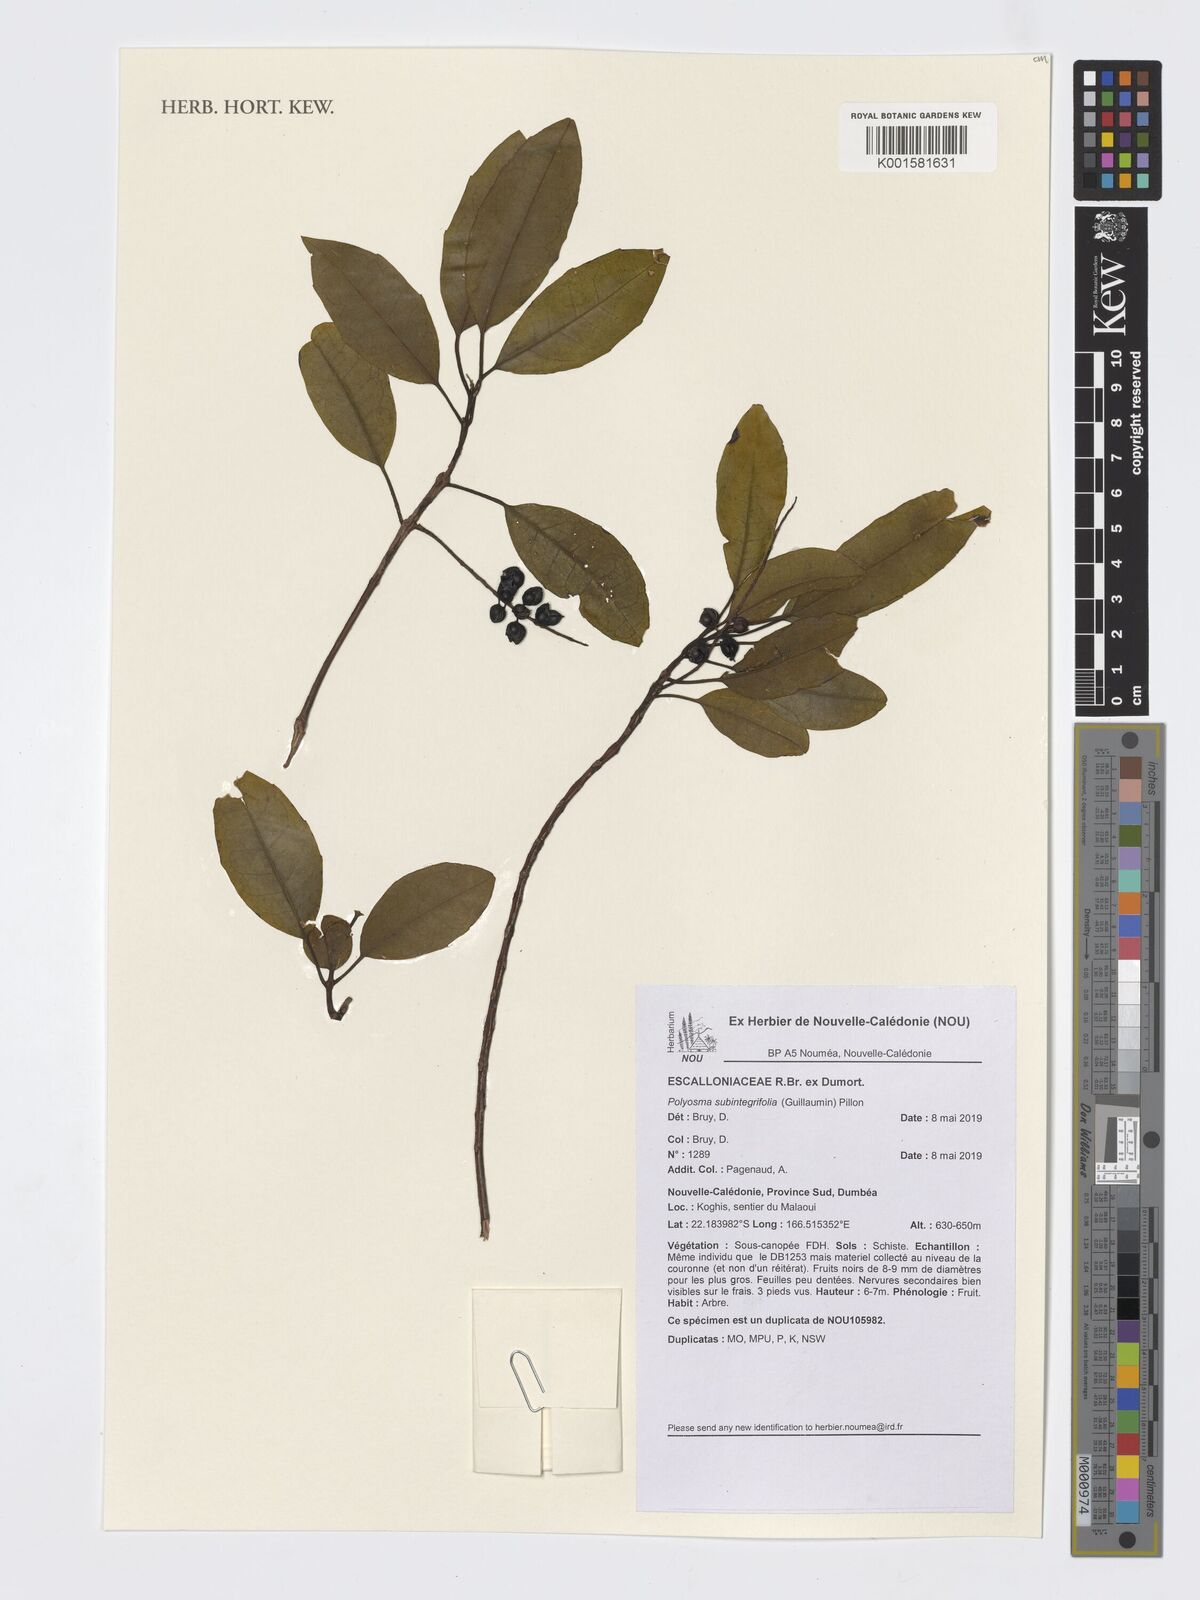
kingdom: Plantae
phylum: Tracheophyta
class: Magnoliopsida
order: Escalloniales
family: Escalloniaceae
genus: Polyosma
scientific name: Polyosma subintegrifolia
